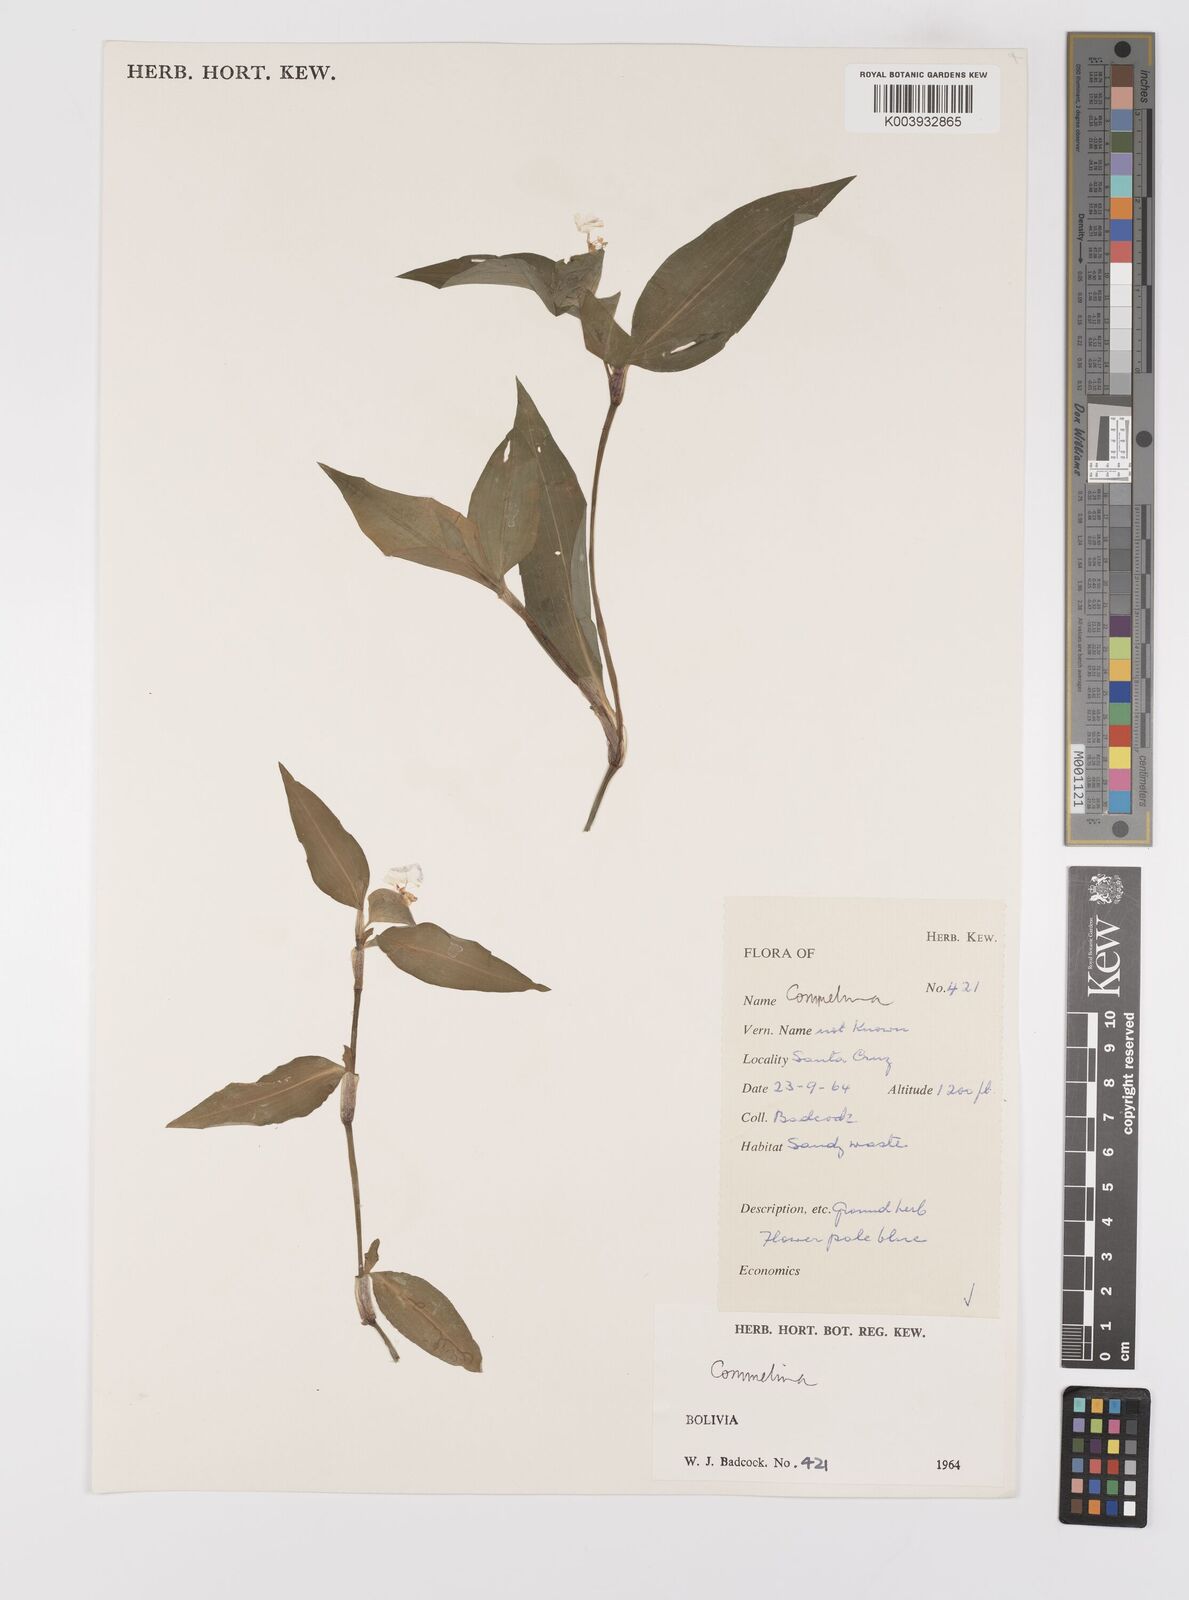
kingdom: Plantae
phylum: Tracheophyta
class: Liliopsida
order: Commelinales
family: Commelinaceae
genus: Commelina
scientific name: Commelina
